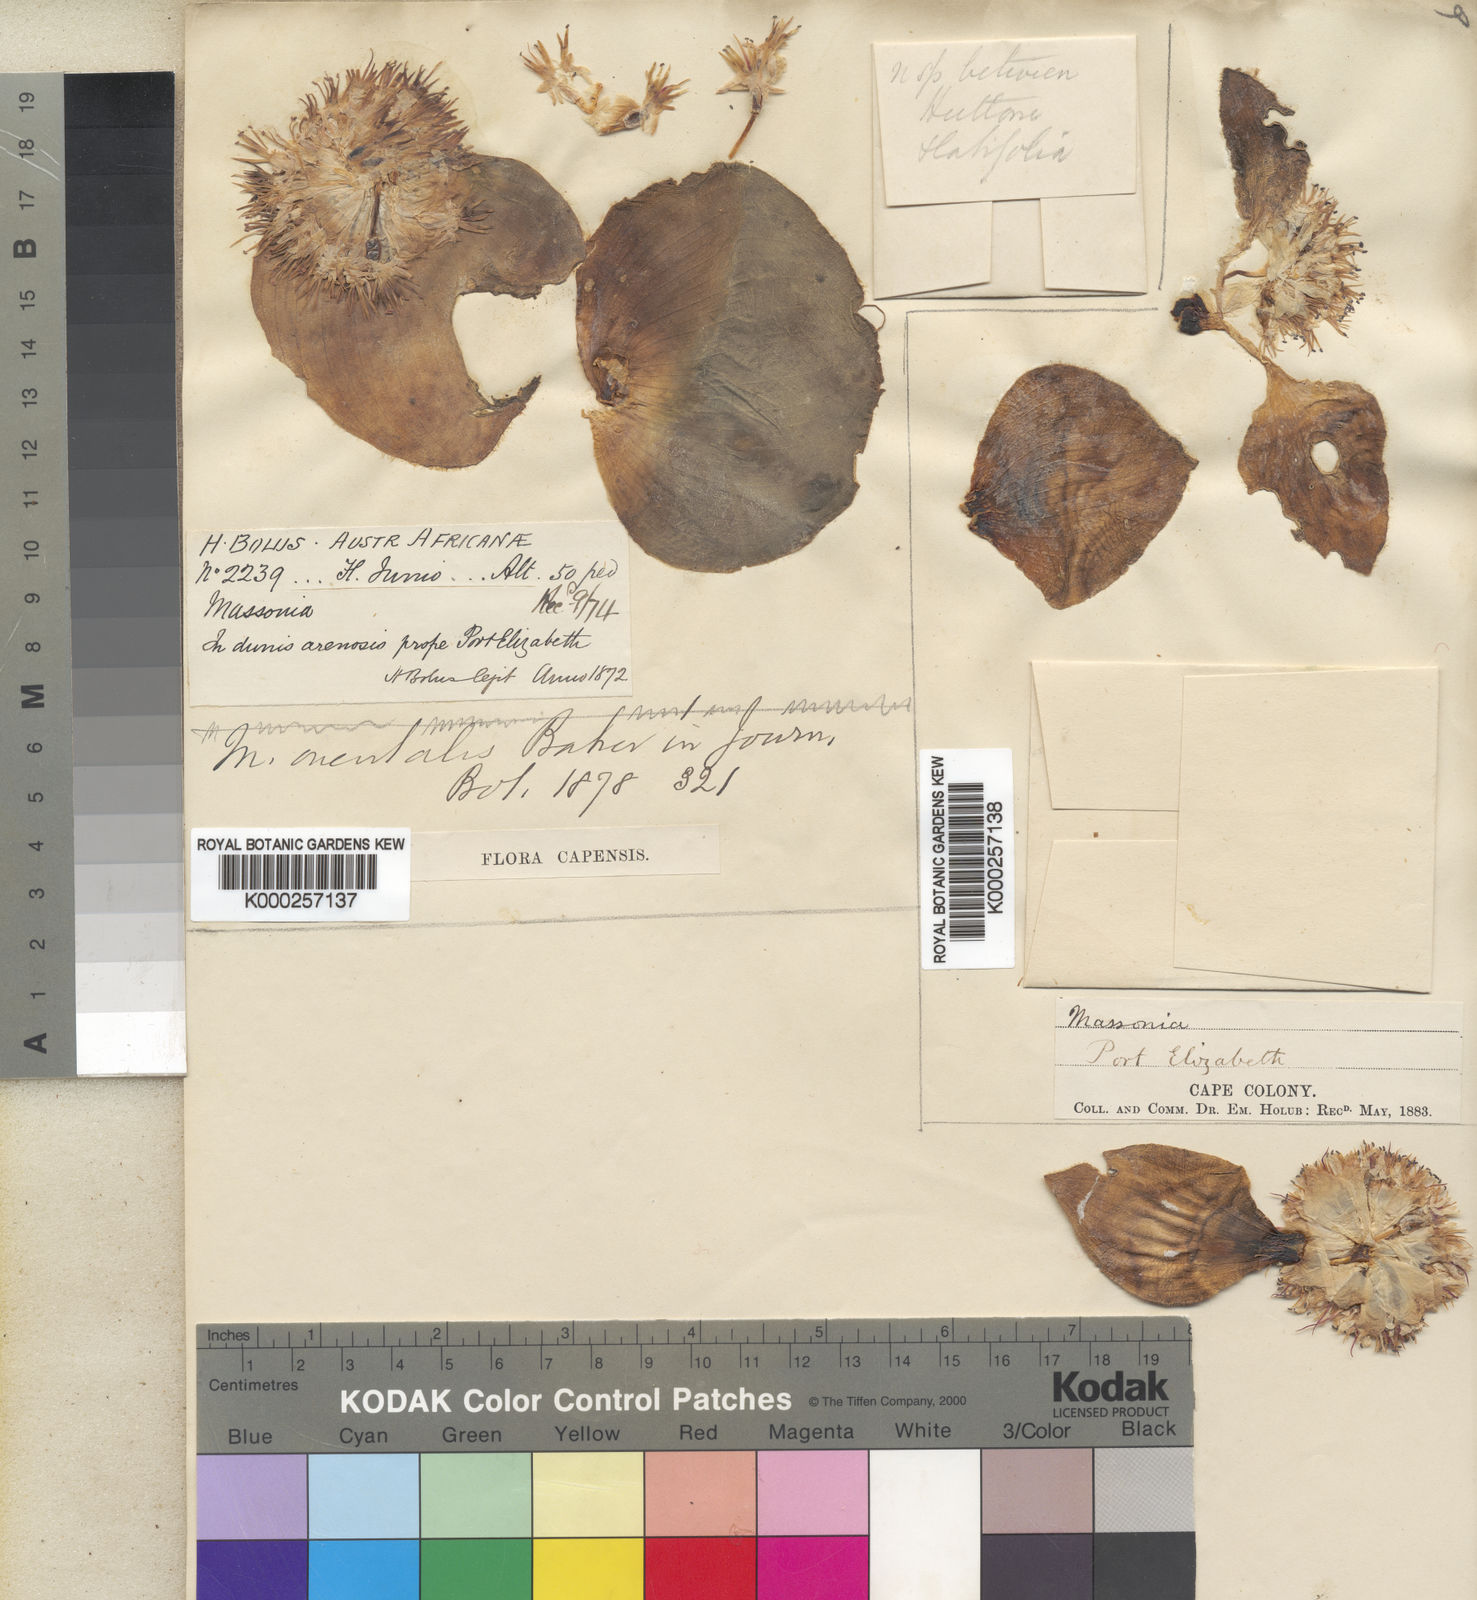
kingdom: Plantae
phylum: Tracheophyta
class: Liliopsida
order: Asparagales
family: Asparagaceae
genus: Massonia
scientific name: Massonia echinata
